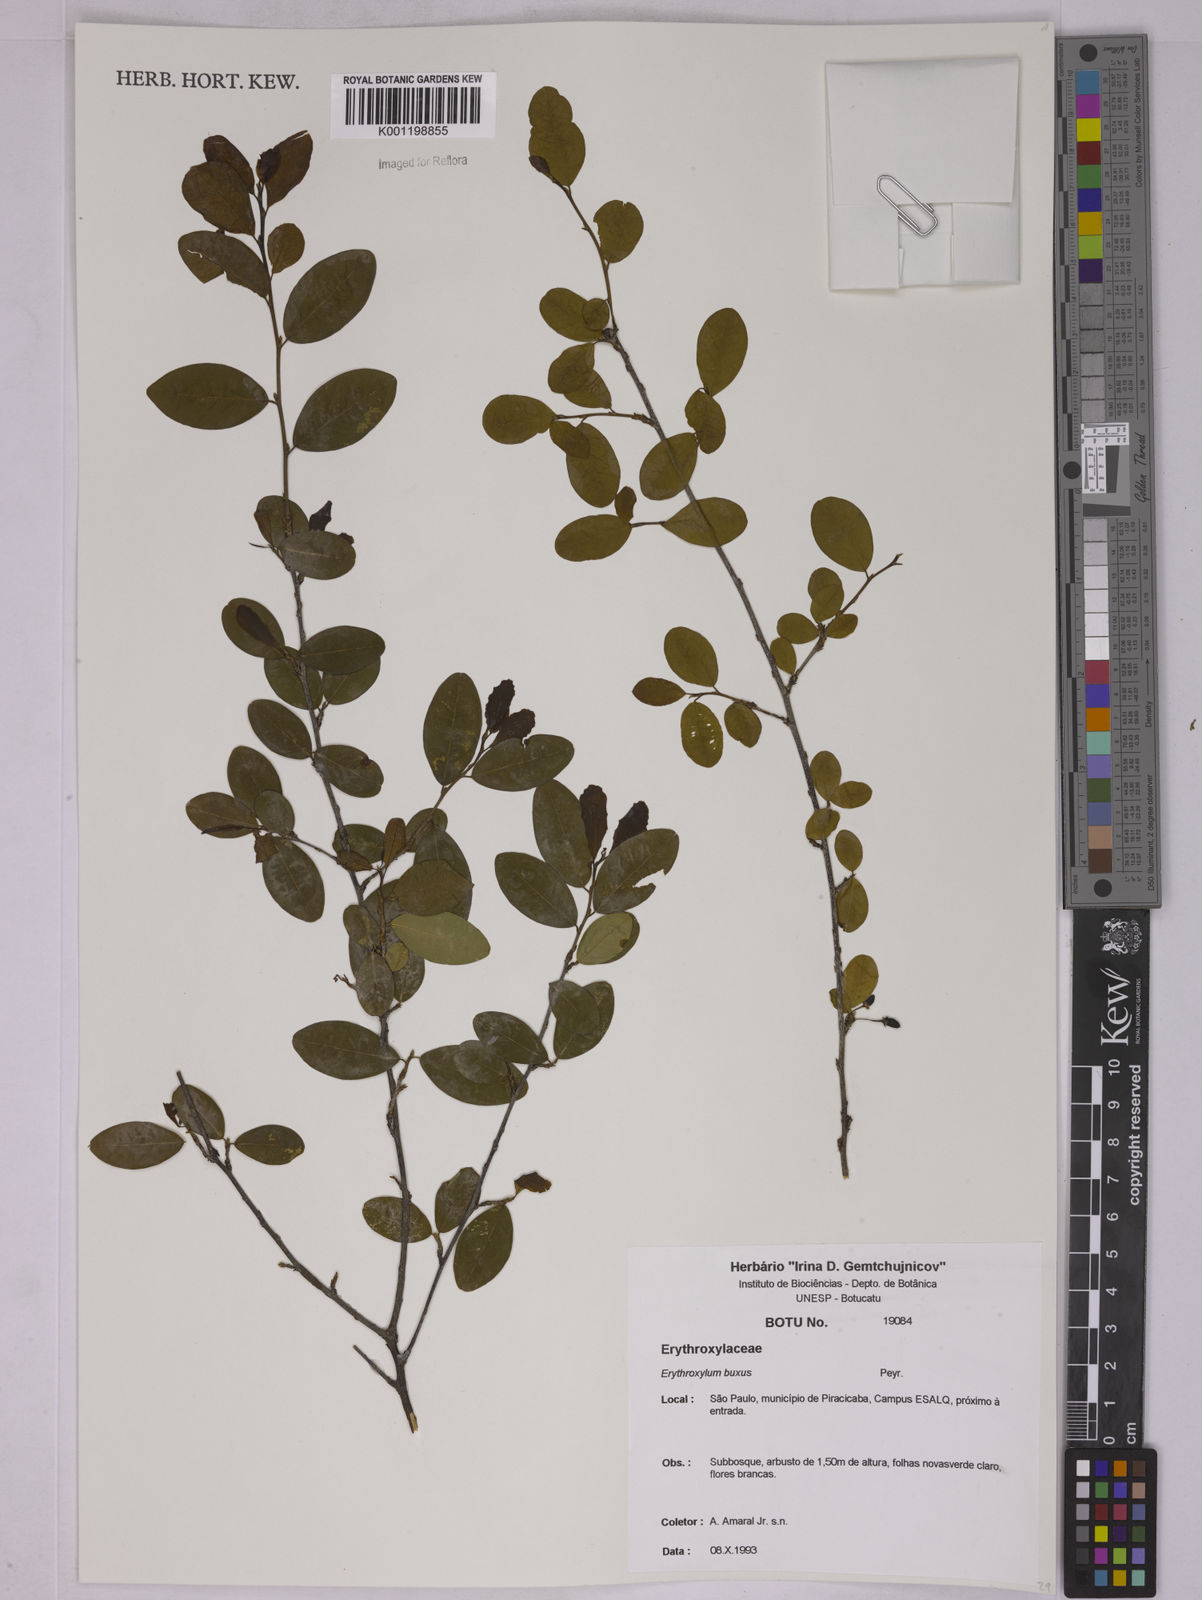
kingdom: Plantae
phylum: Tracheophyta
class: Magnoliopsida
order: Malpighiales
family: Erythroxylaceae
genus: Erythroxylum
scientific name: Erythroxylum buxus
